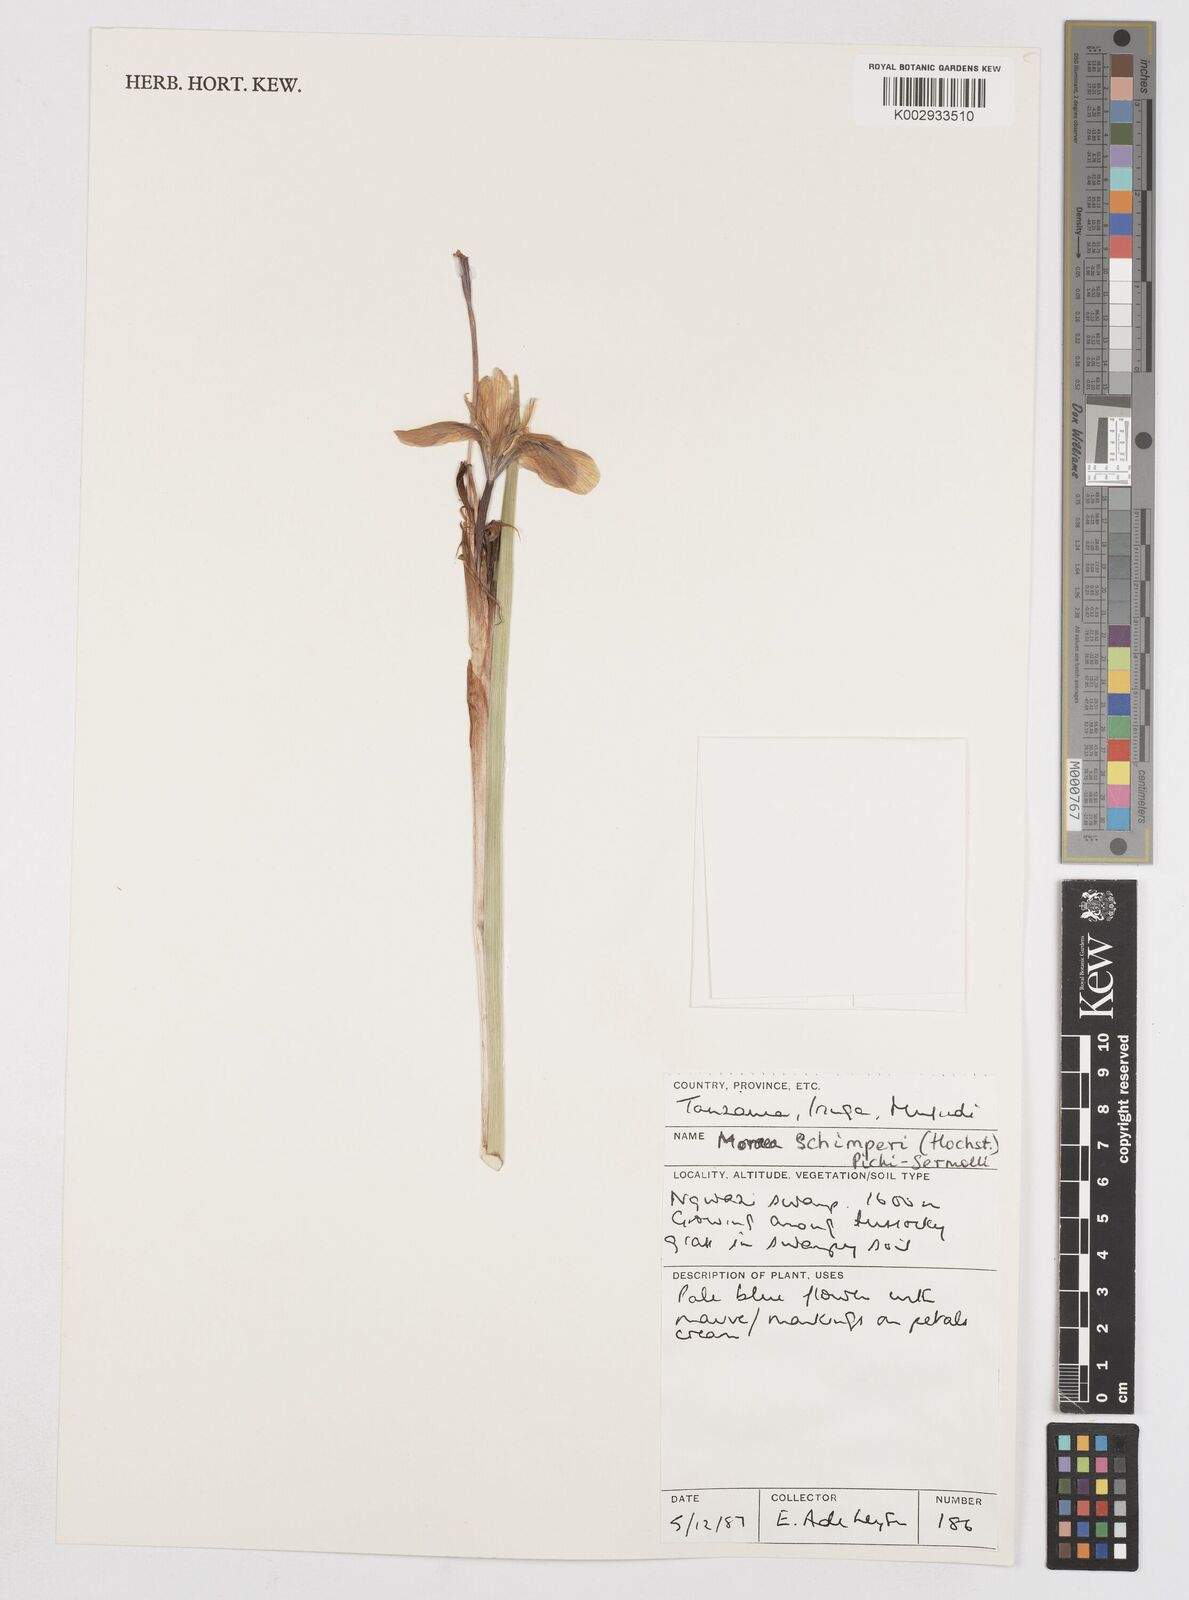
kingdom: Plantae
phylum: Tracheophyta
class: Liliopsida
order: Asparagales
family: Iridaceae
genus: Moraea
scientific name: Moraea schimperi
